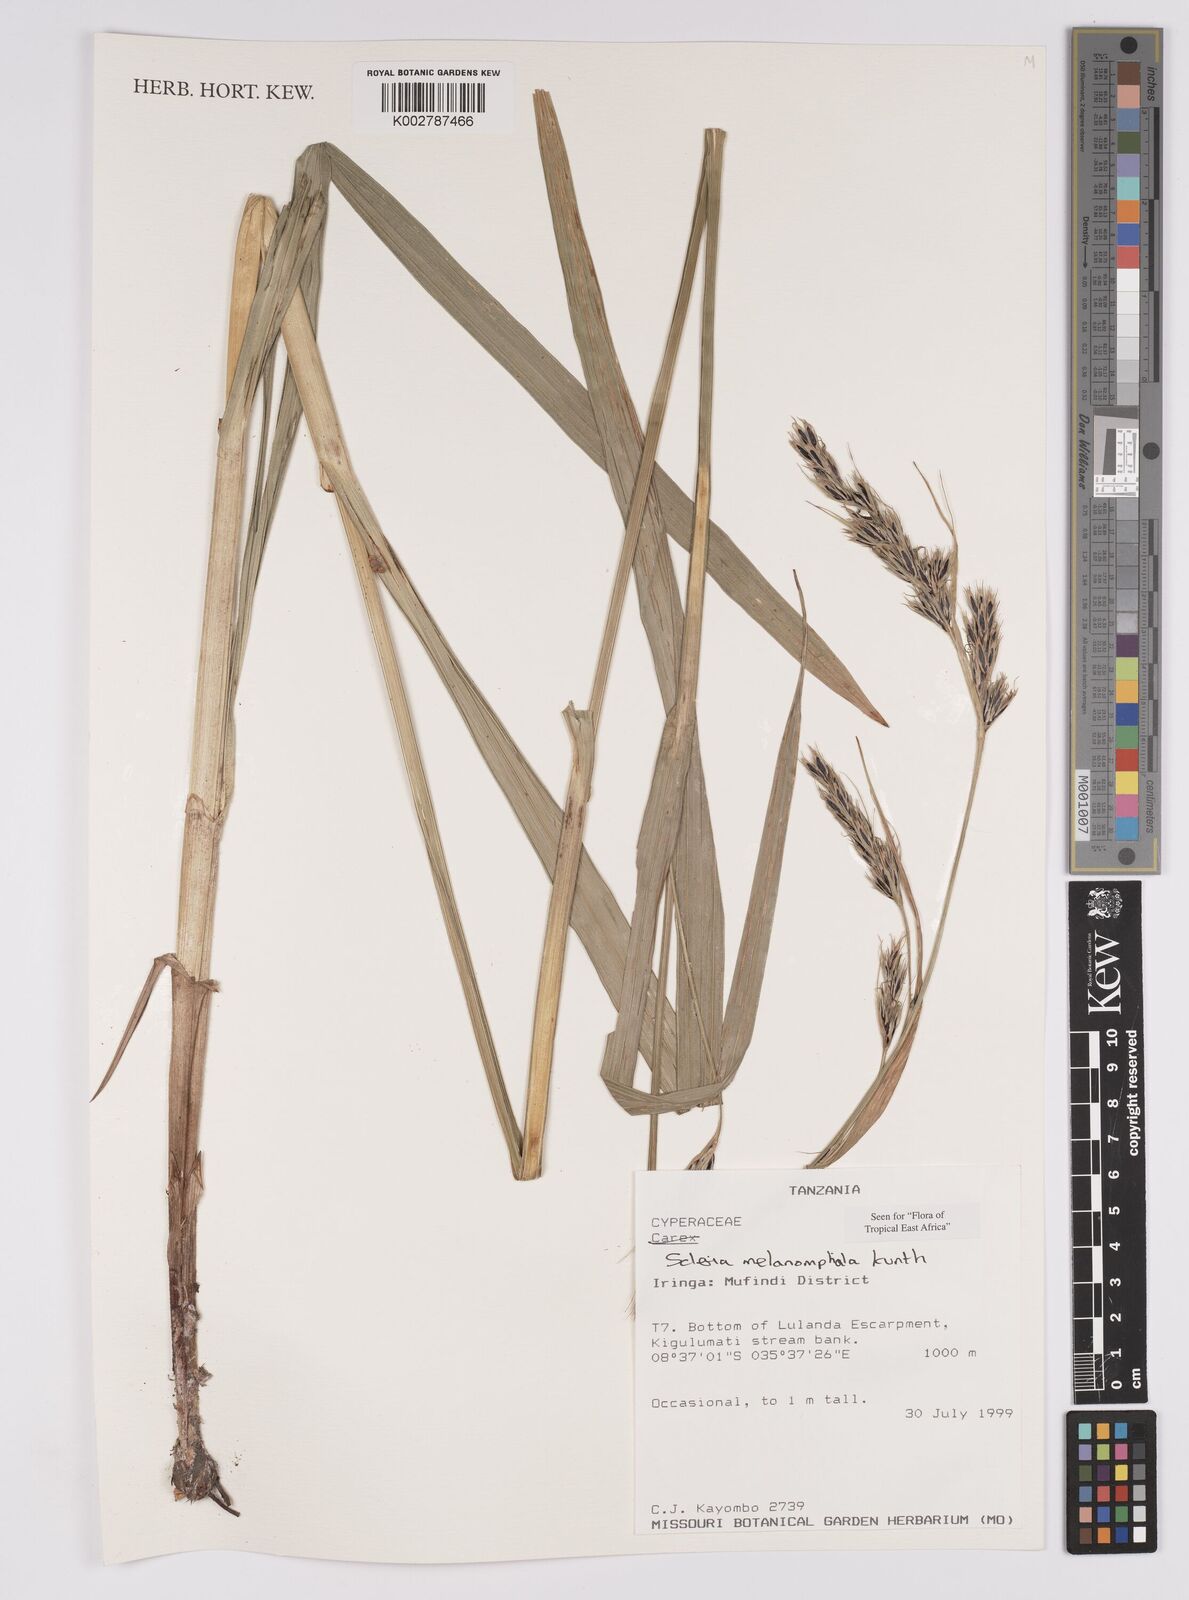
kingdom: Plantae
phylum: Tracheophyta
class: Liliopsida
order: Poales
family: Cyperaceae
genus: Scleria
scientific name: Scleria melanomphala
